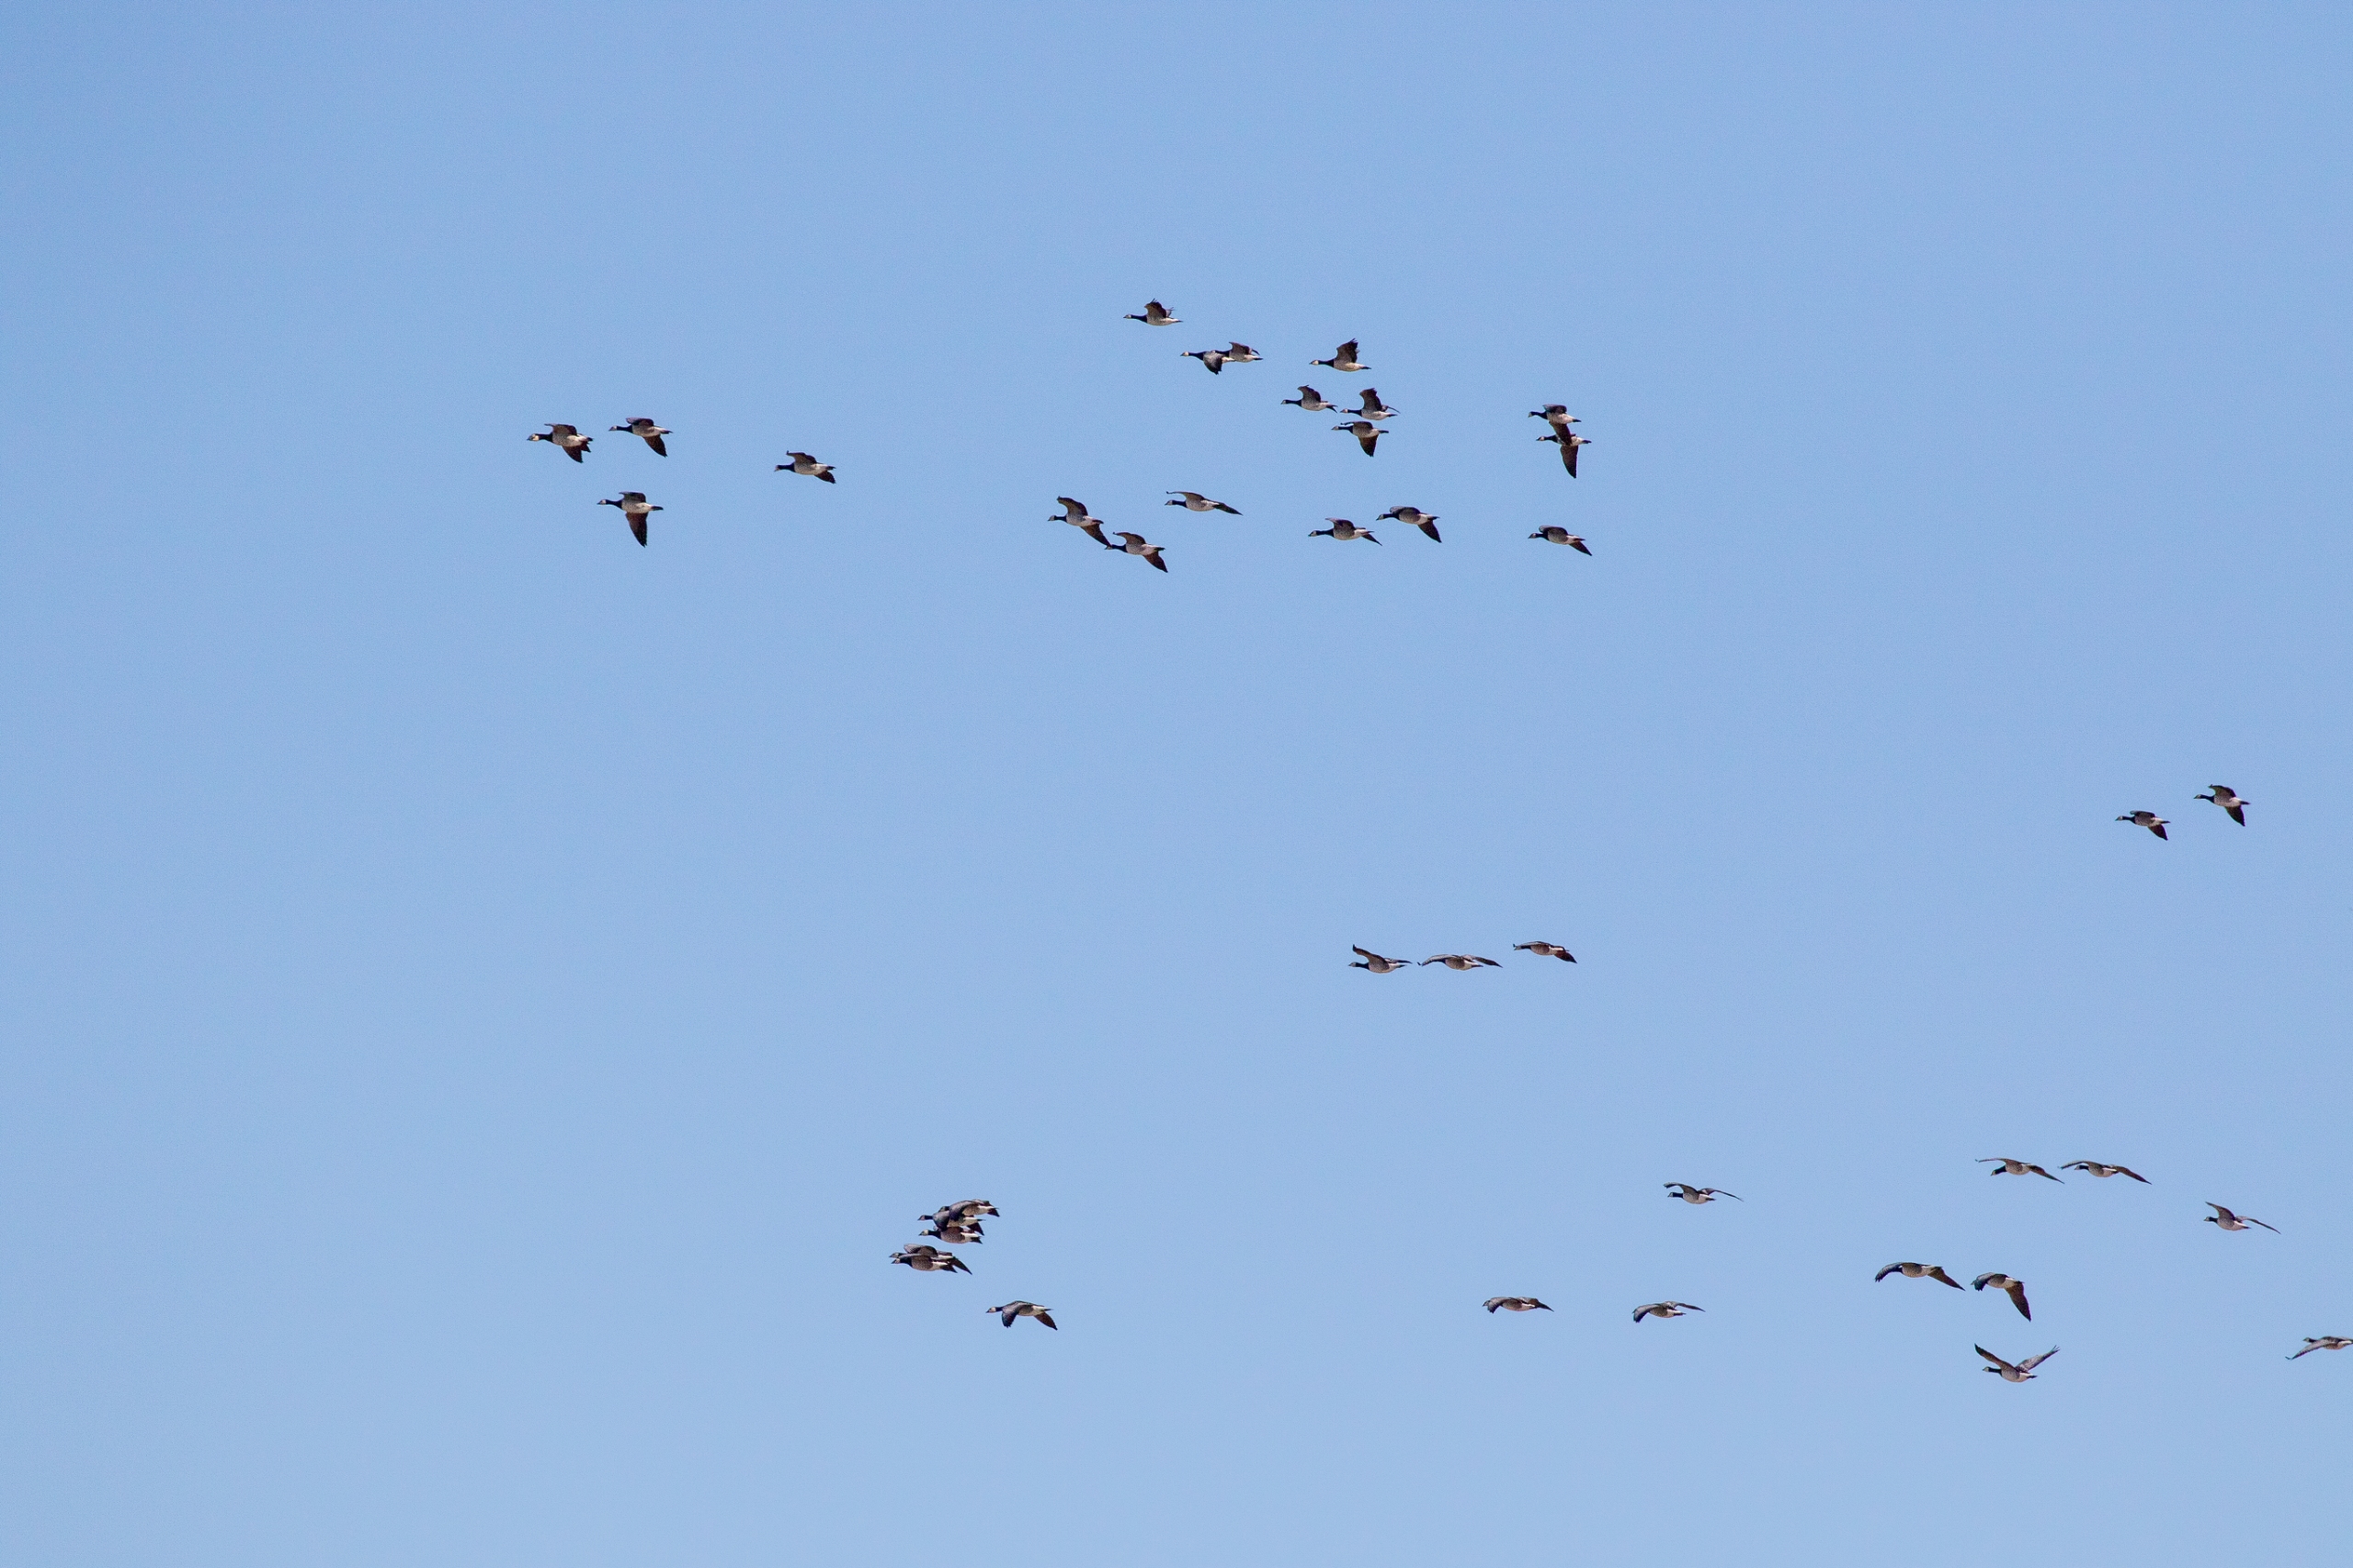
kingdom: Animalia
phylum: Chordata
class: Aves
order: Anseriformes
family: Anatidae
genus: Branta
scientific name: Branta leucopsis
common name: Bramgås
